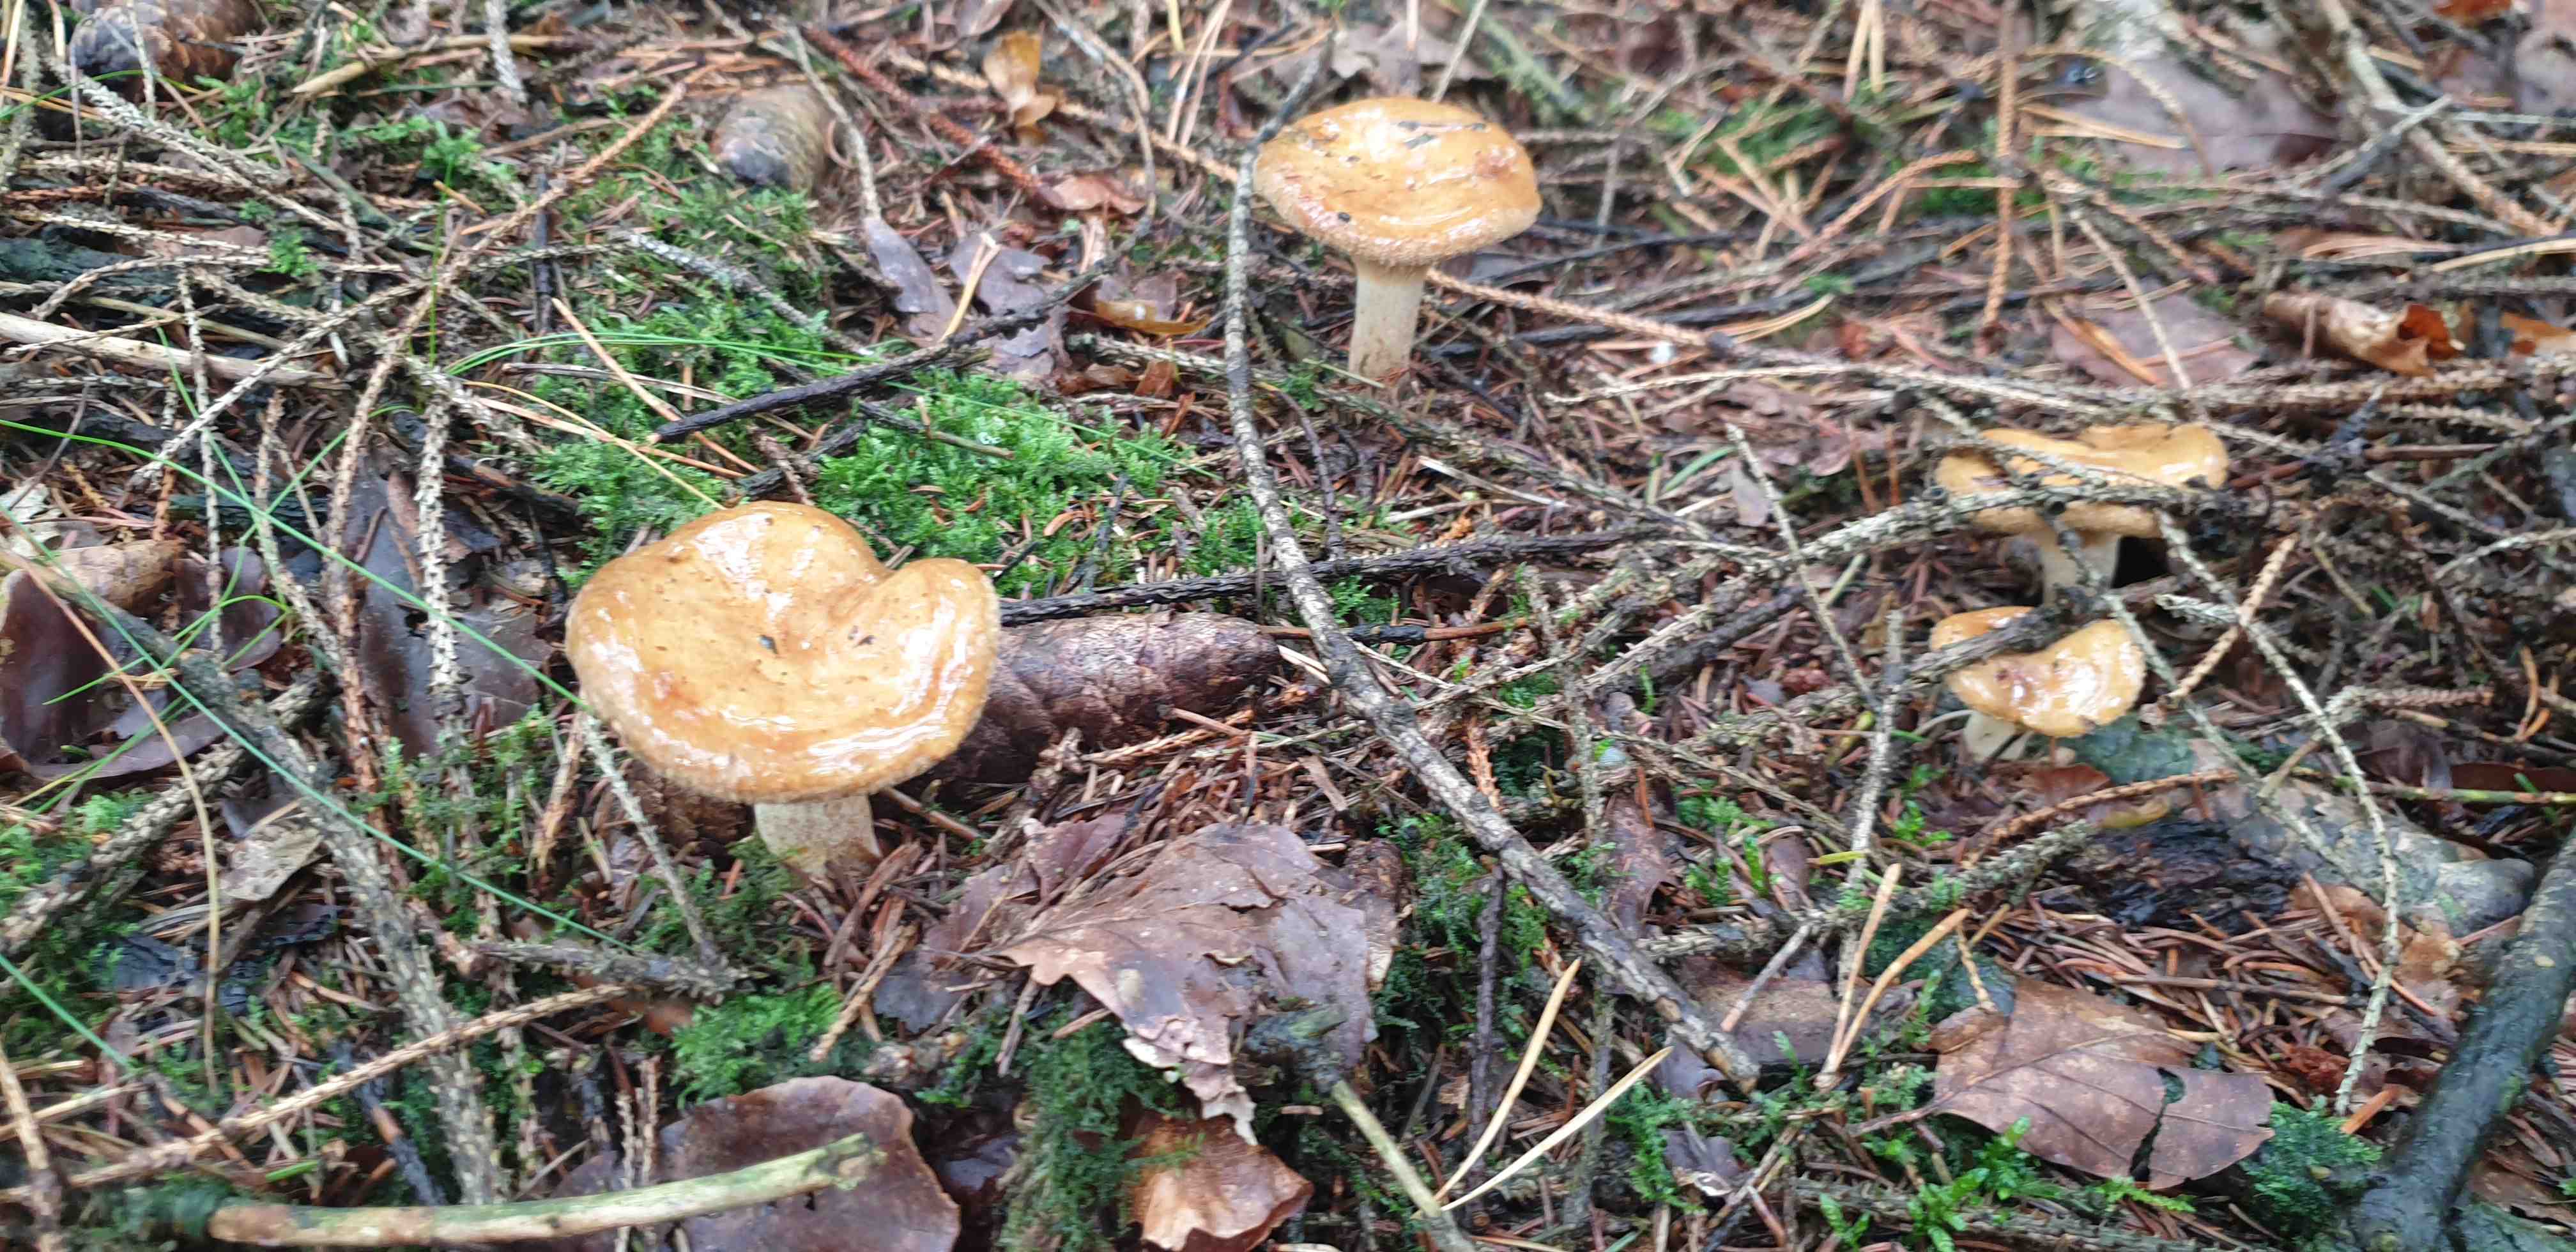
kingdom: Fungi
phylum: Basidiomycota
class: Agaricomycetes
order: Boletales
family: Paxillaceae
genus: Paxillus
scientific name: Paxillus involutus
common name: almindelig netbladhat
